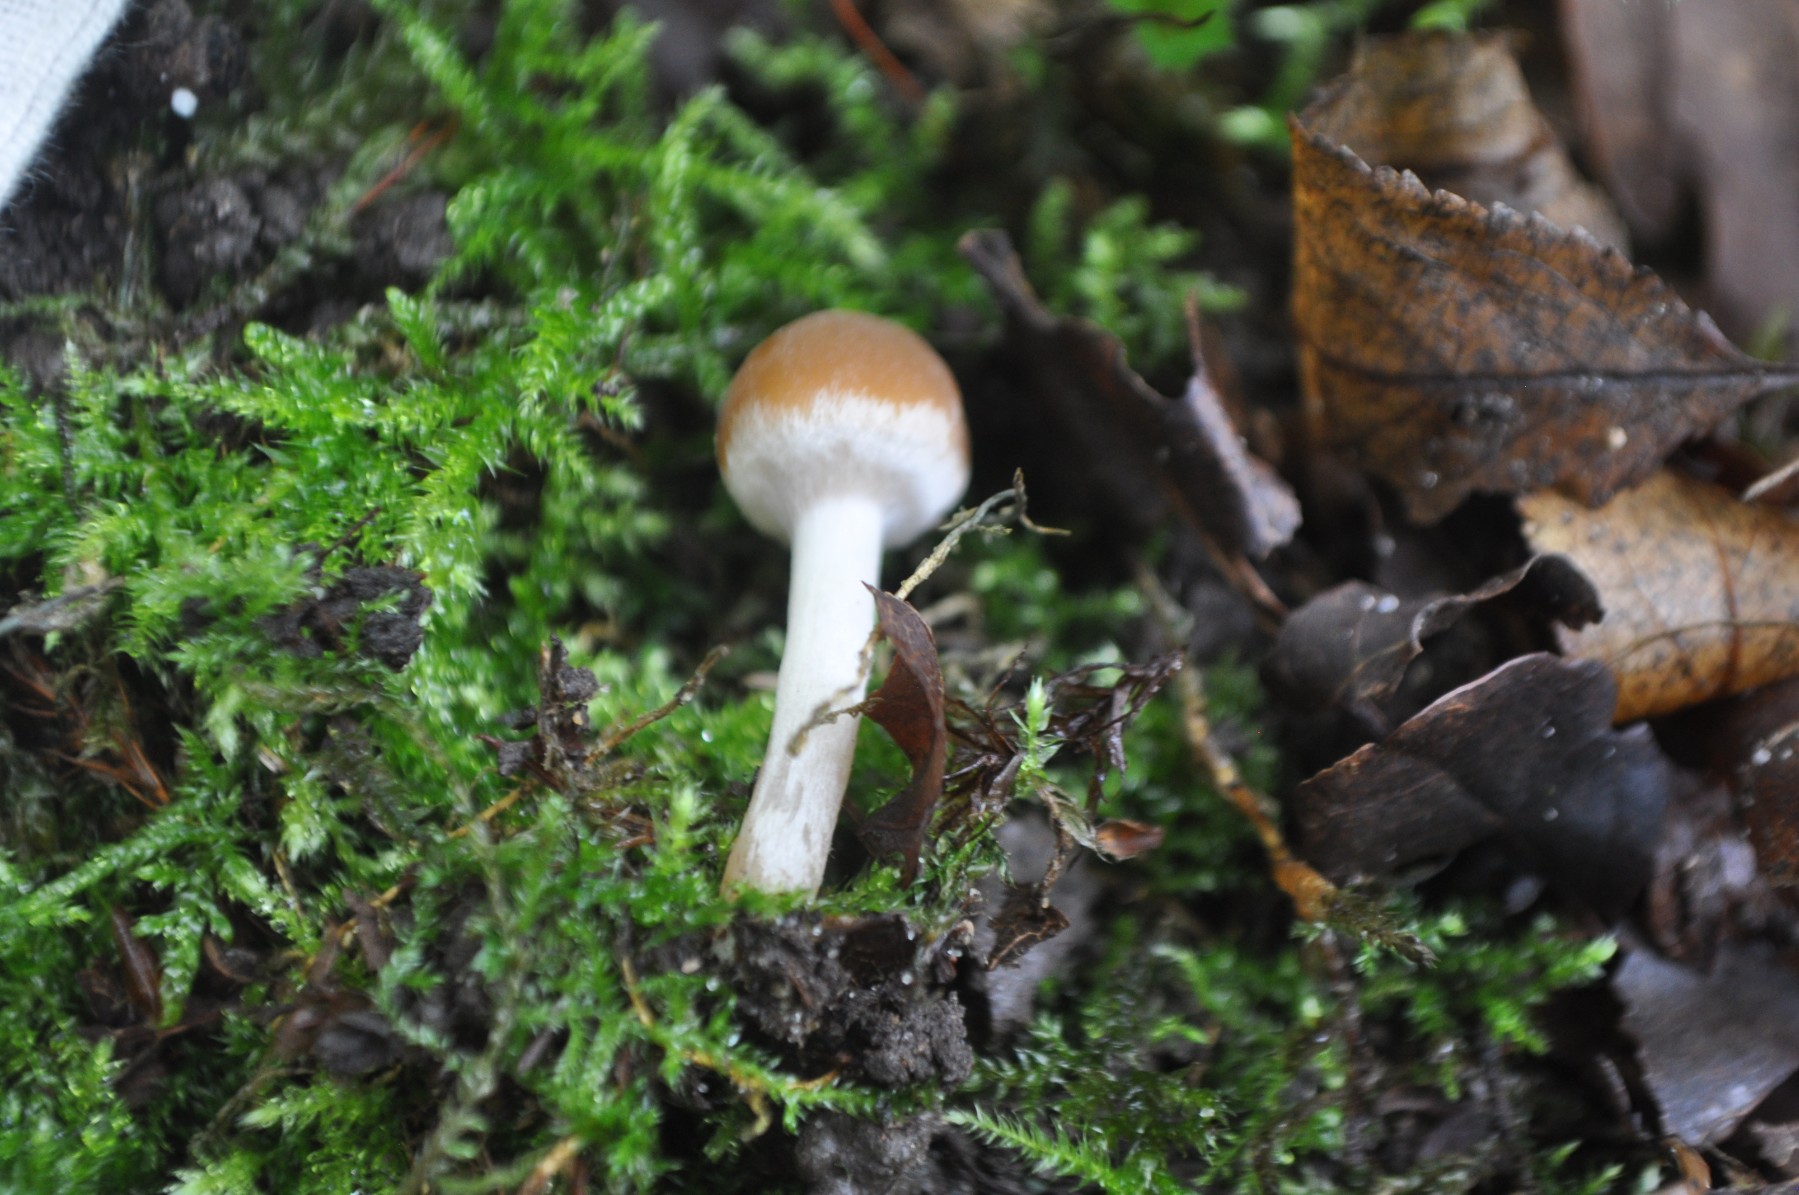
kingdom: Fungi
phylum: Basidiomycota
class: Agaricomycetes
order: Agaricales
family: Psathyrellaceae
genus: Psathyrella
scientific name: Psathyrella piluliformis
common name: lysstokket mørkhat
